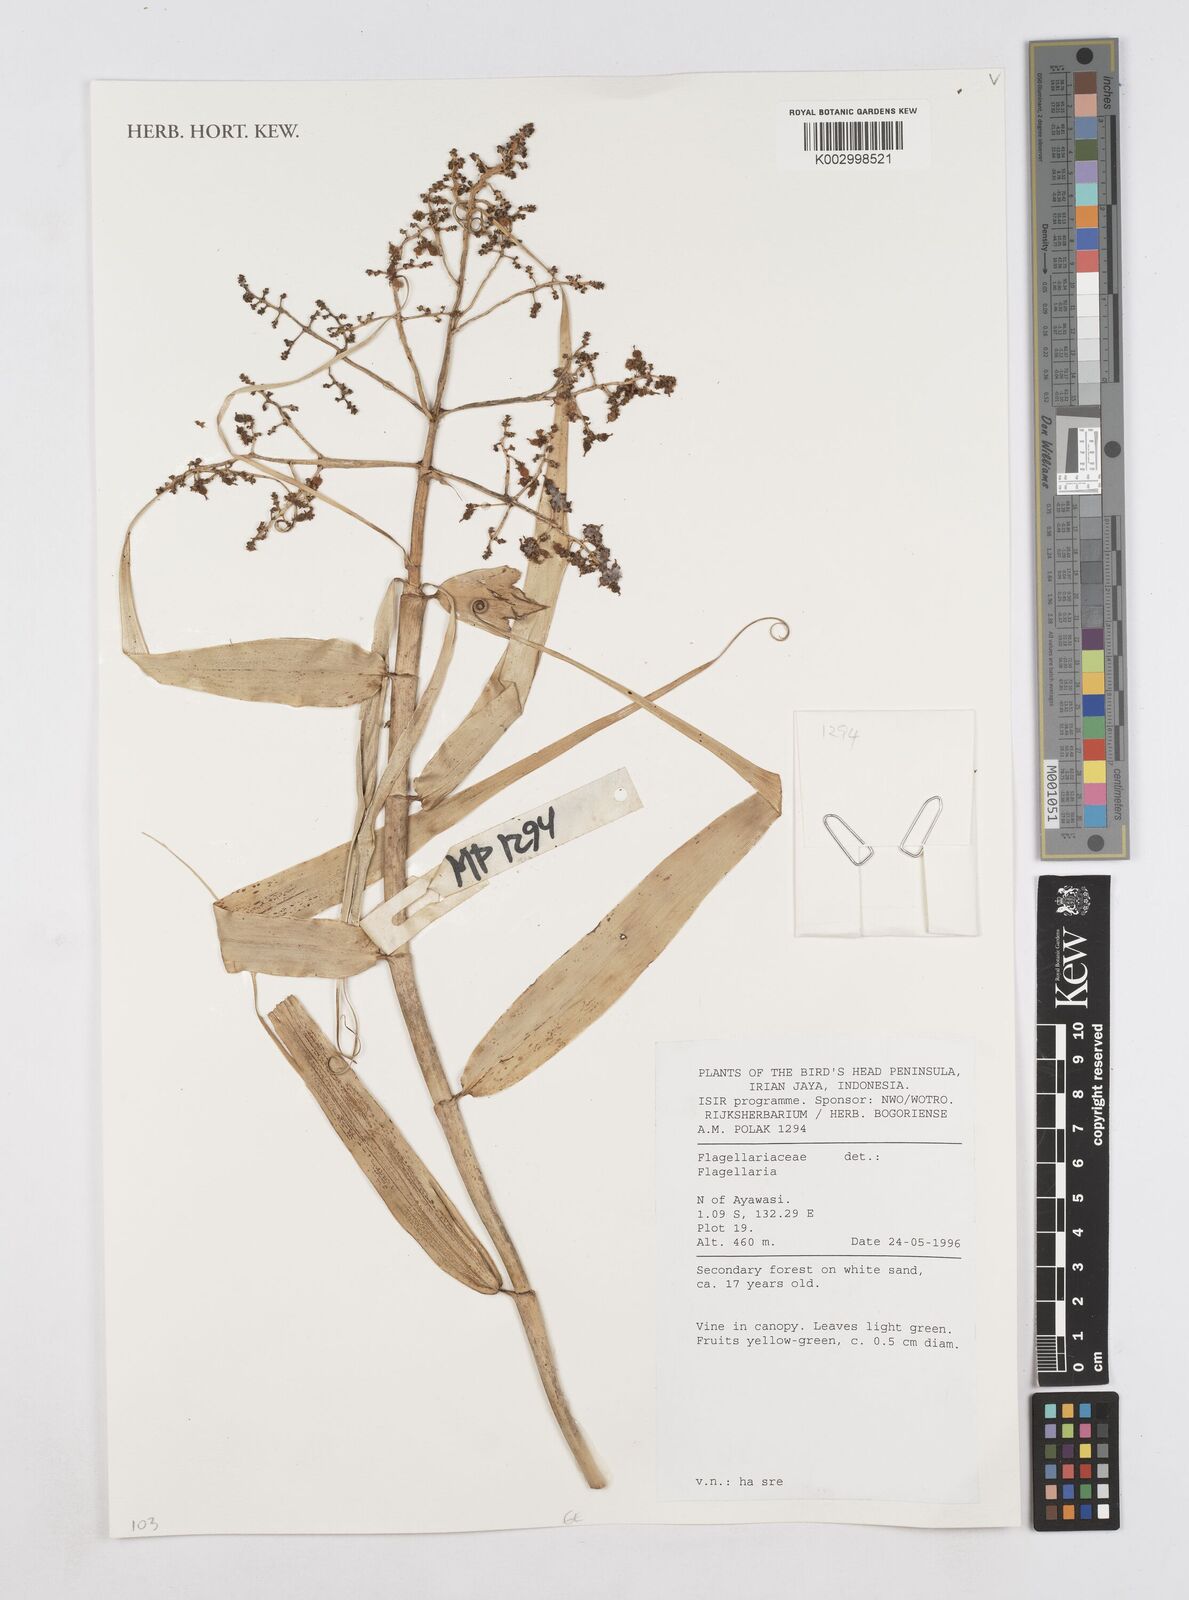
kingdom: Plantae
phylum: Tracheophyta
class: Liliopsida
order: Poales
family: Flagellariaceae
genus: Flagellaria
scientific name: Flagellaria indica
